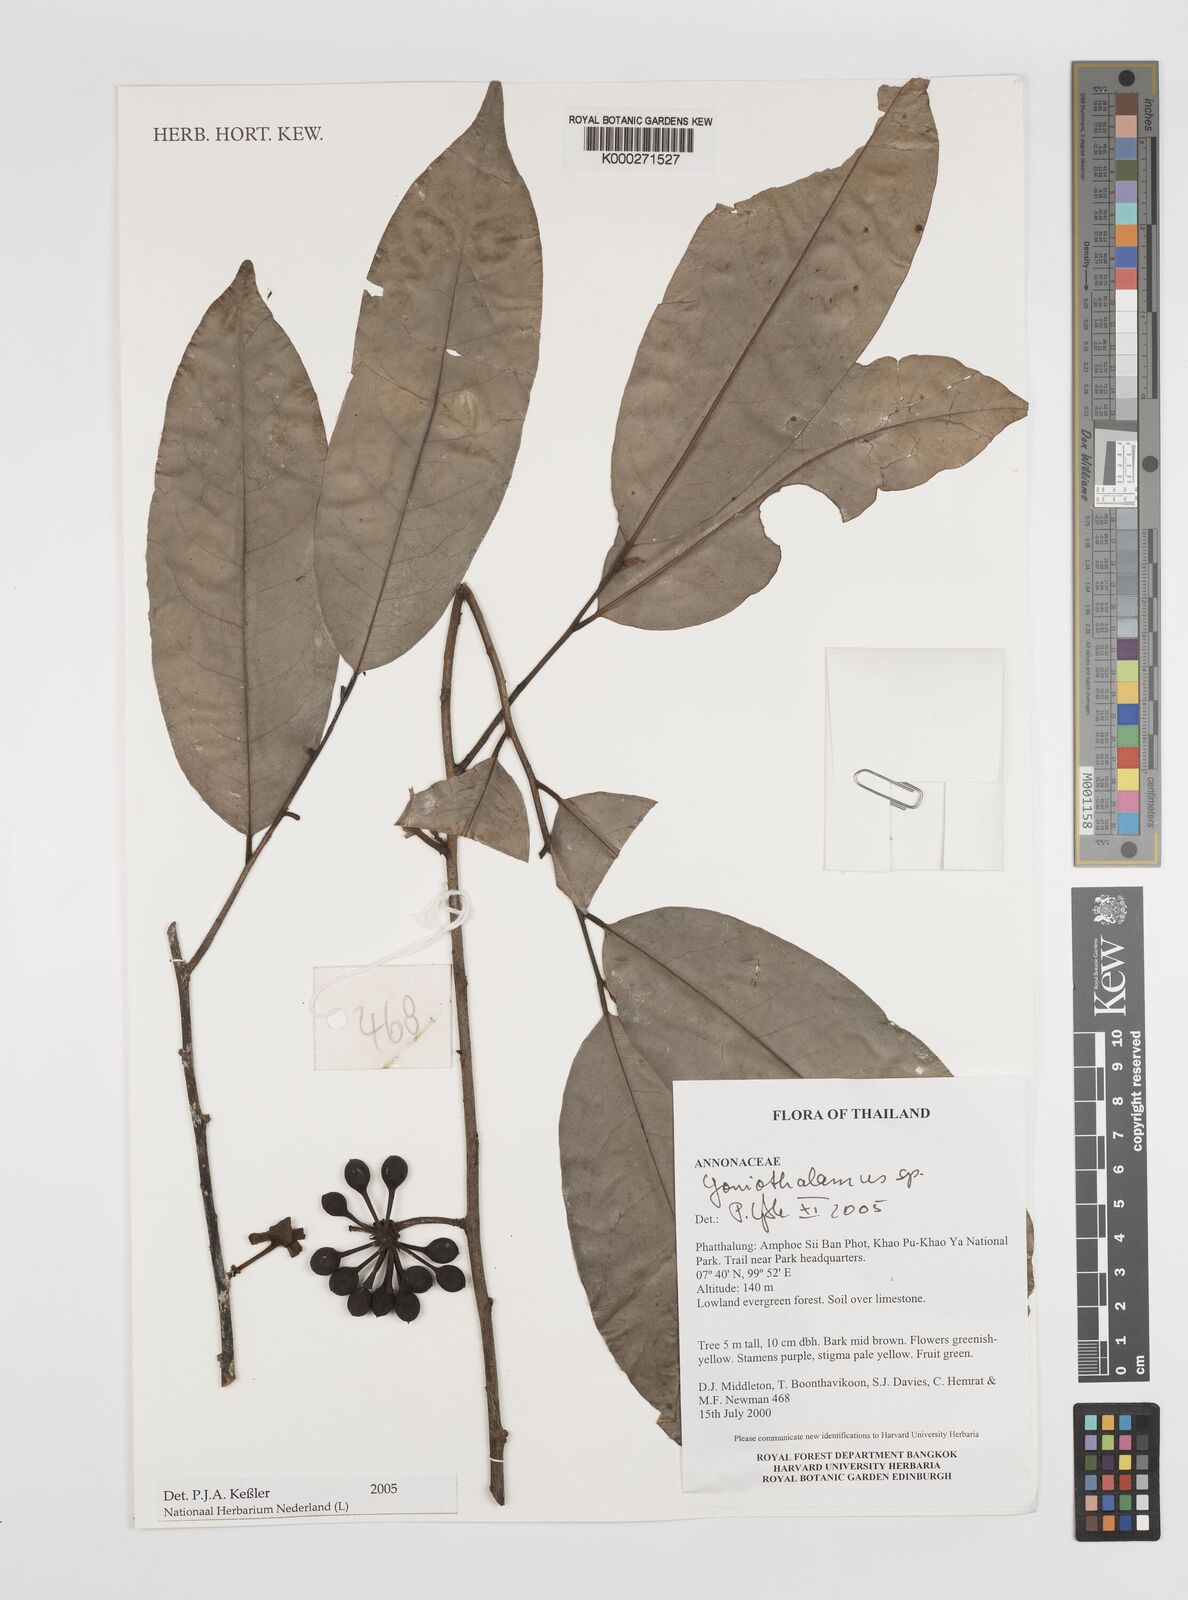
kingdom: Plantae
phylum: Tracheophyta
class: Magnoliopsida
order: Magnoliales
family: Annonaceae
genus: Goniothalamus
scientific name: Goniothalamus
